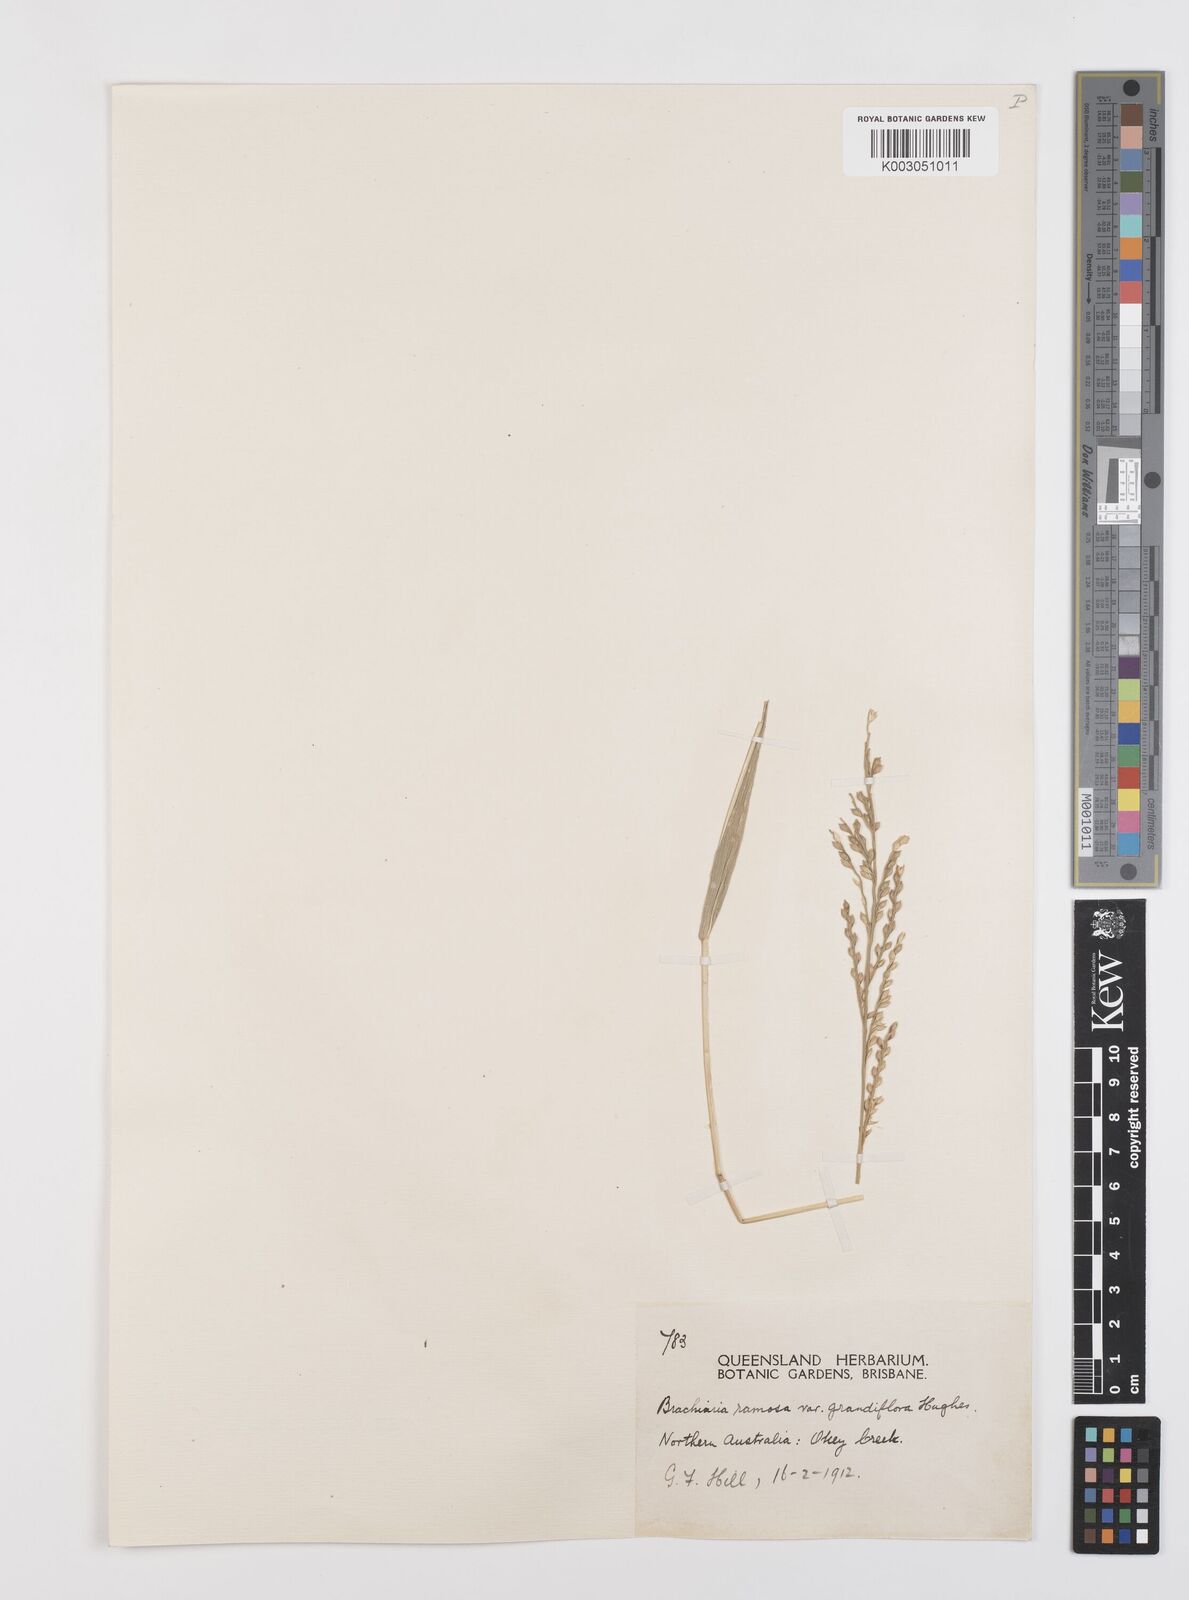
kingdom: Plantae
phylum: Tracheophyta
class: Liliopsida
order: Poales
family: Poaceae
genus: Urochloa
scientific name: Urochloa pubigera
